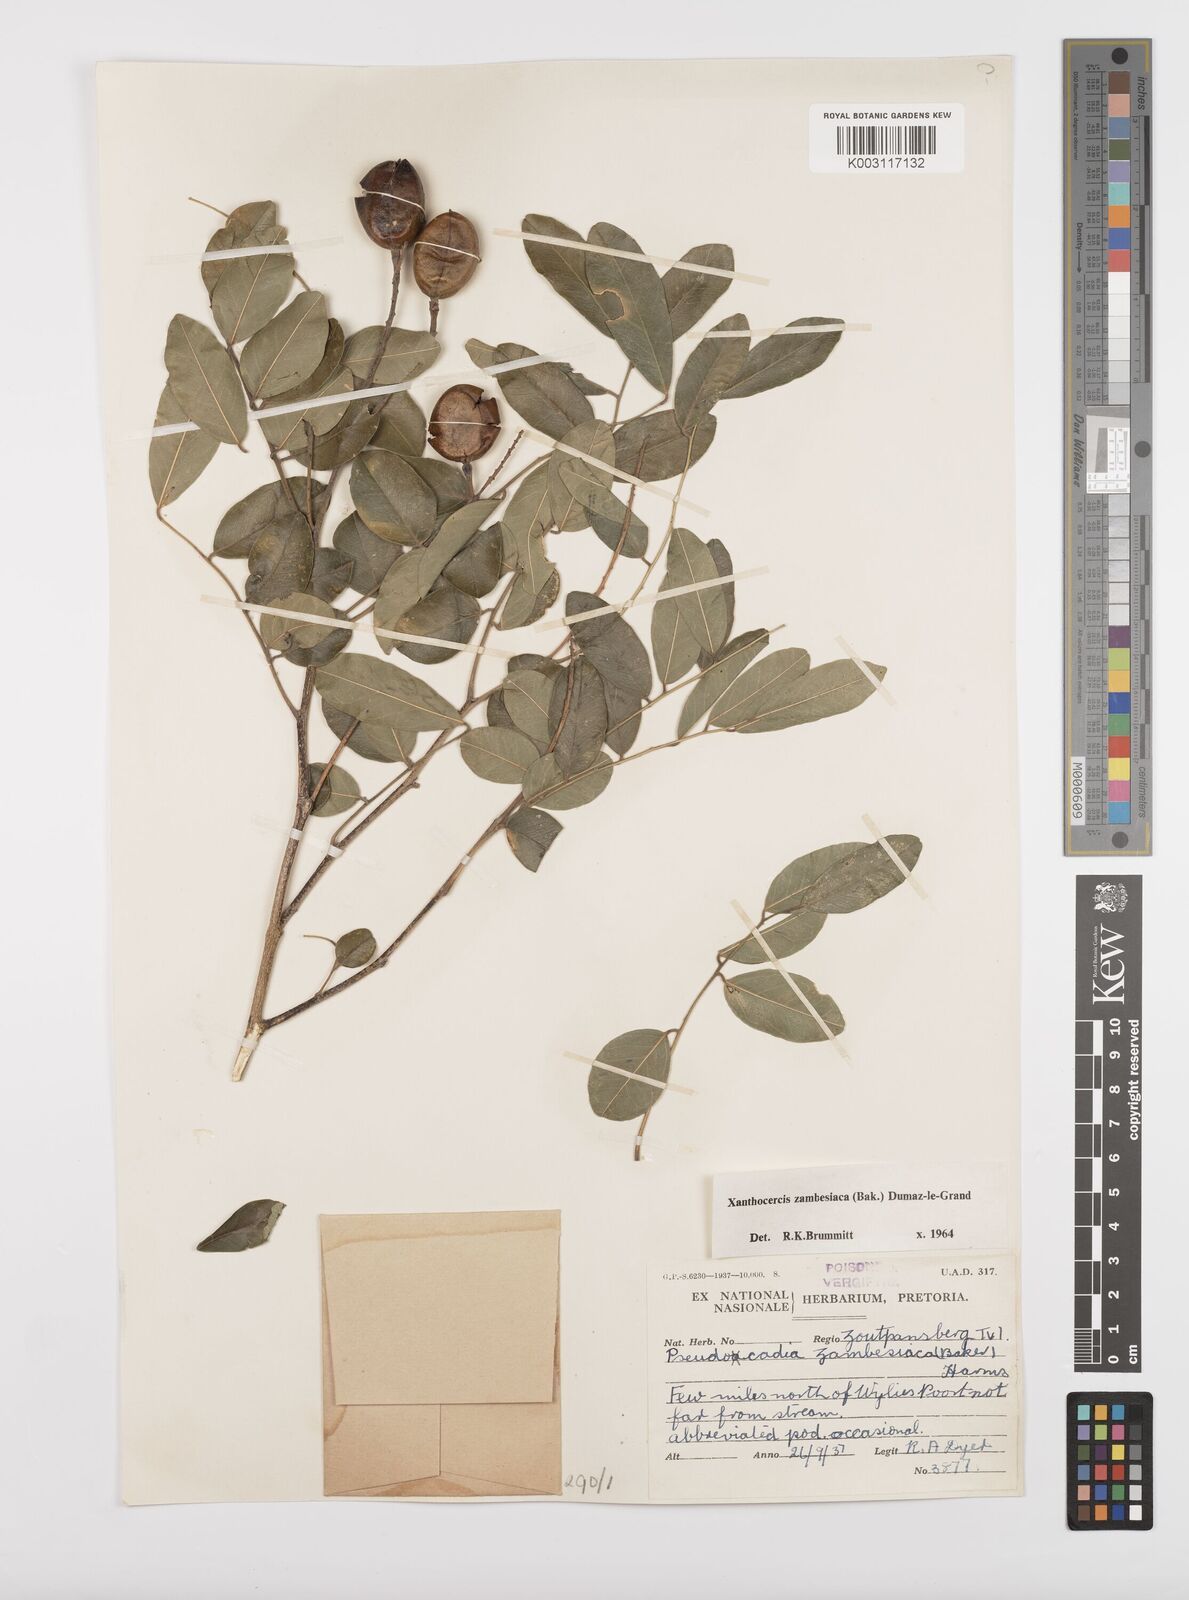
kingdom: Plantae
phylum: Tracheophyta
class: Magnoliopsida
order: Fabales
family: Fabaceae
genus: Xanthocercis
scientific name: Xanthocercis zambesiaca
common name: Nyala-tree
